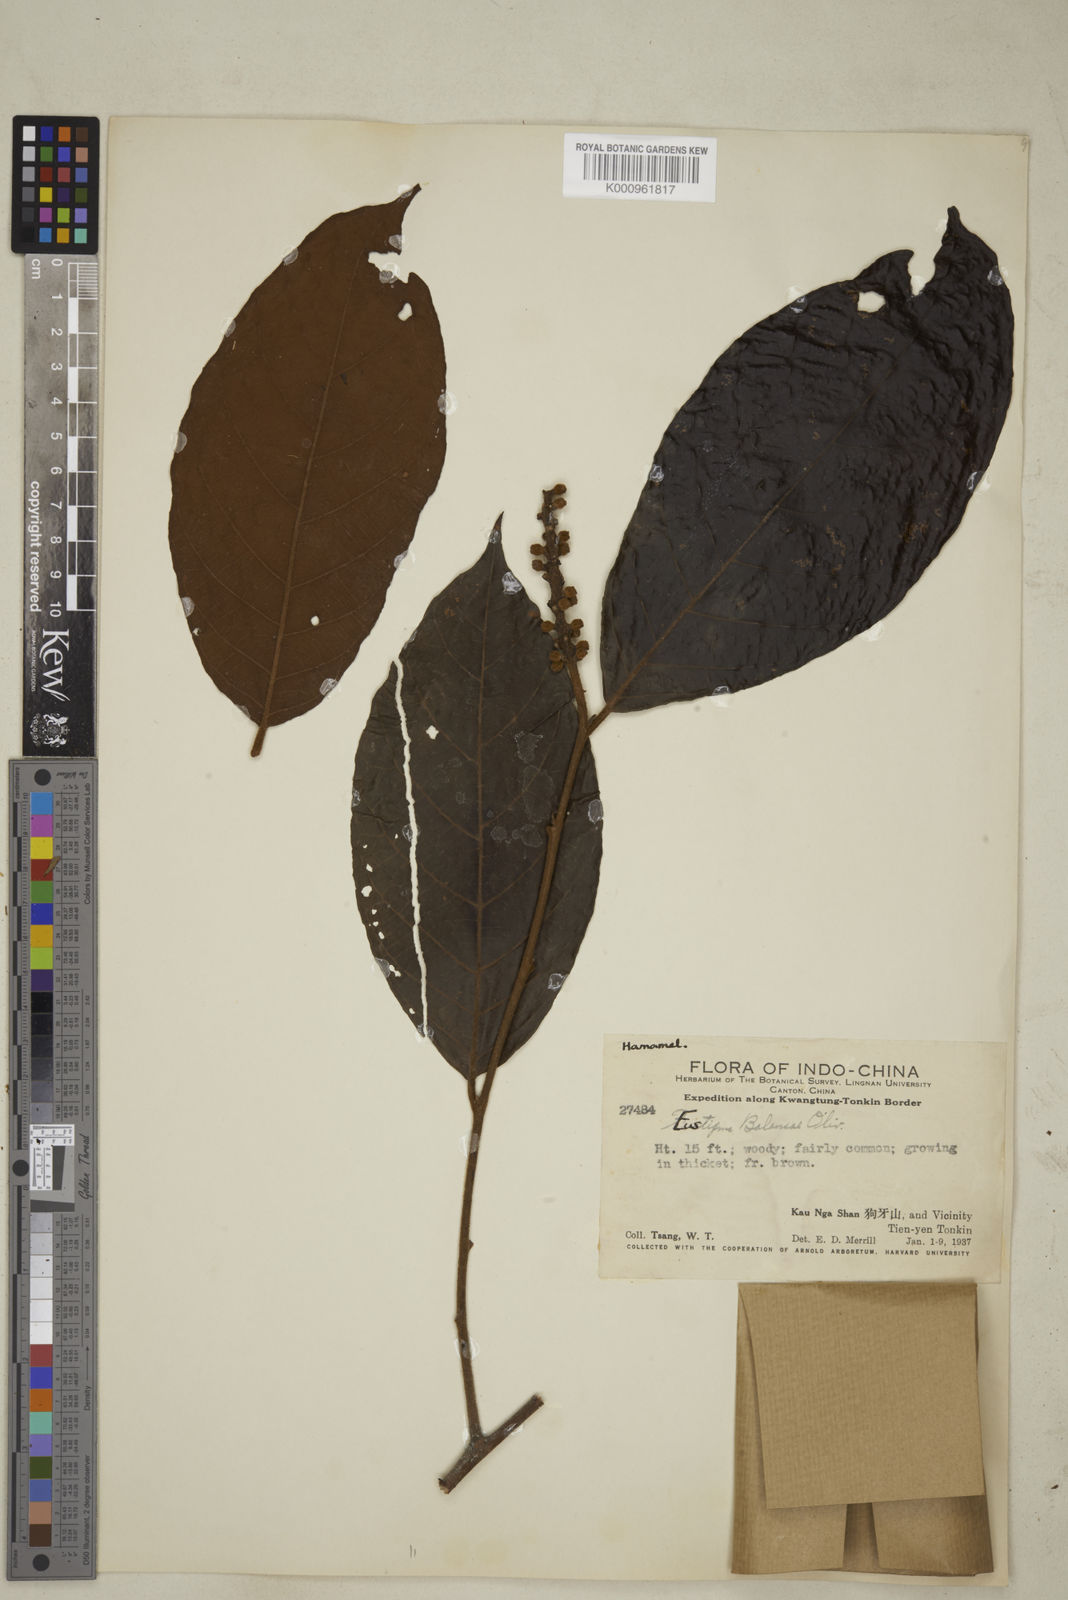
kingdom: Plantae
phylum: Tracheophyta
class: Magnoliopsida
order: Saxifragales
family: Hamamelidaceae
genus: Eustigma
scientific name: Eustigma
